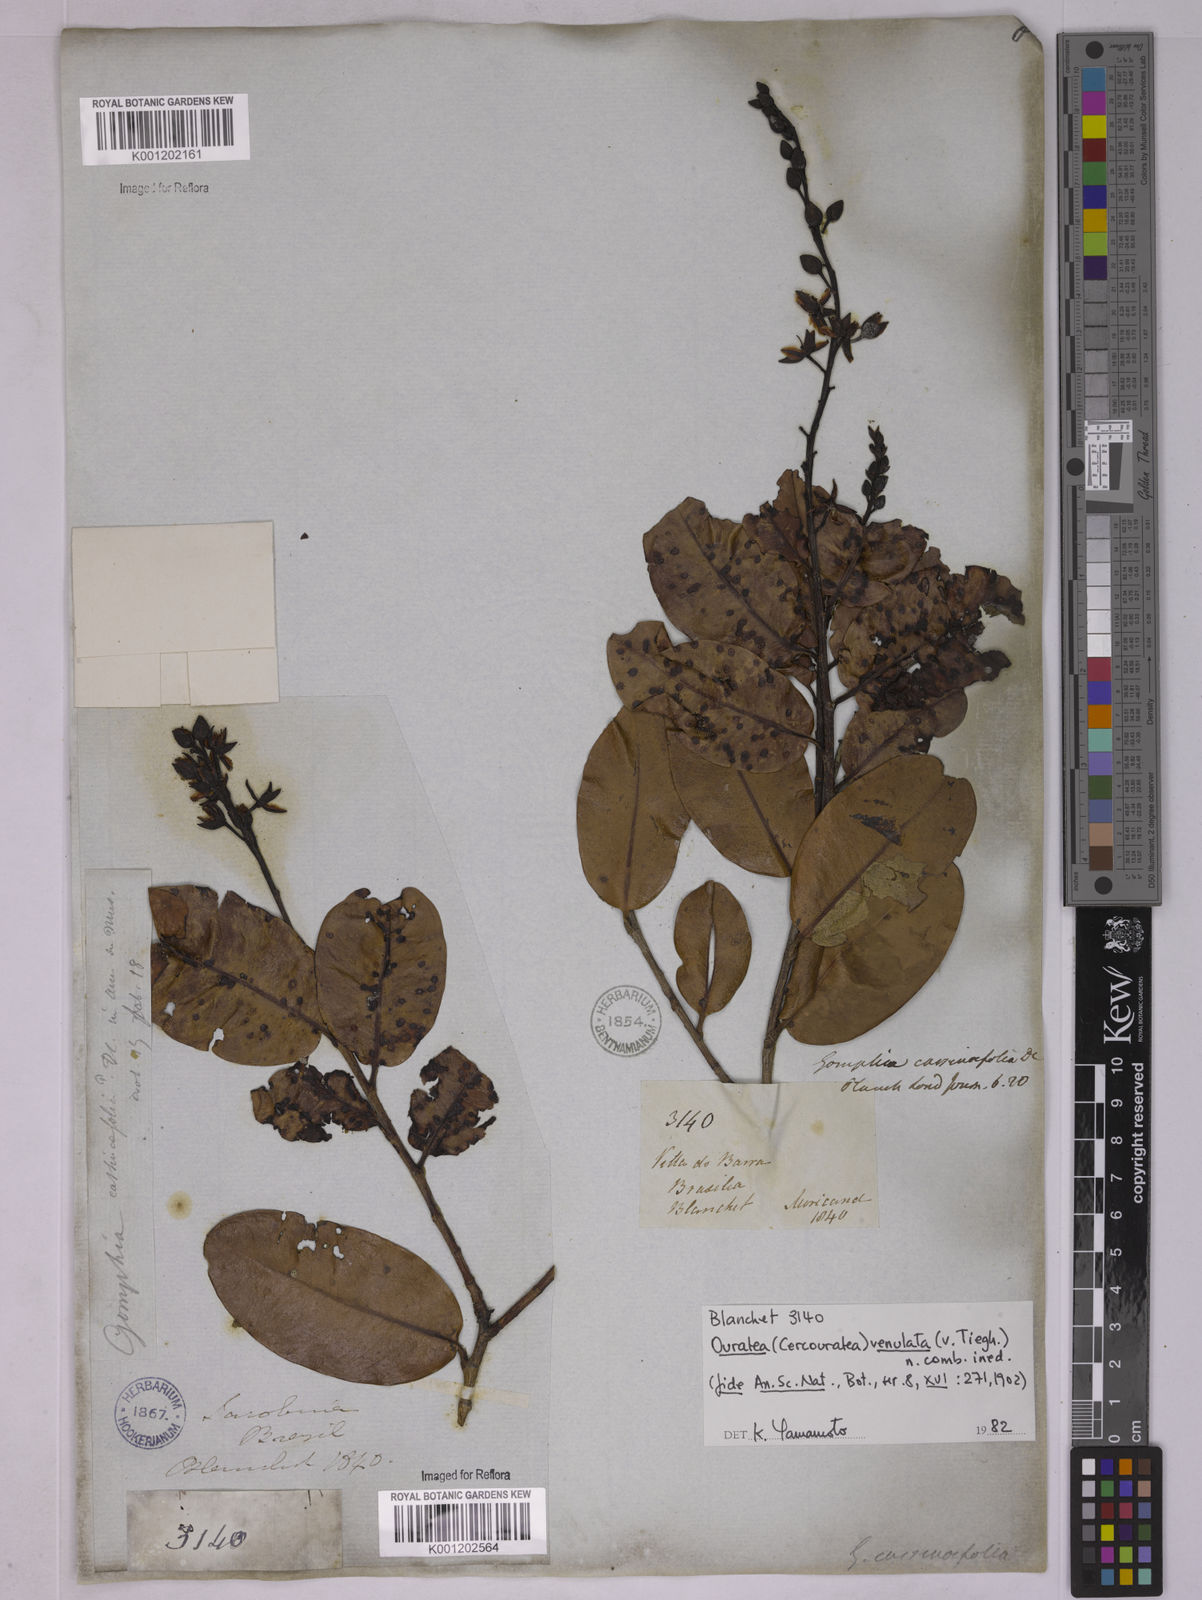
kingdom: Plantae
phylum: Tracheophyta
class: Magnoliopsida
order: Malpighiales
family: Ochnaceae
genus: Ouratea
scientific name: Ouratea venulata
